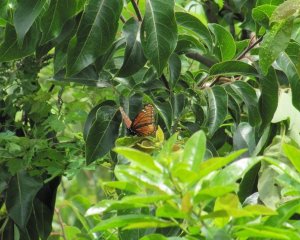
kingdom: Animalia
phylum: Arthropoda
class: Insecta
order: Lepidoptera
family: Nymphalidae
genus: Limenitis
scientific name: Limenitis archippus
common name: Viceroy
